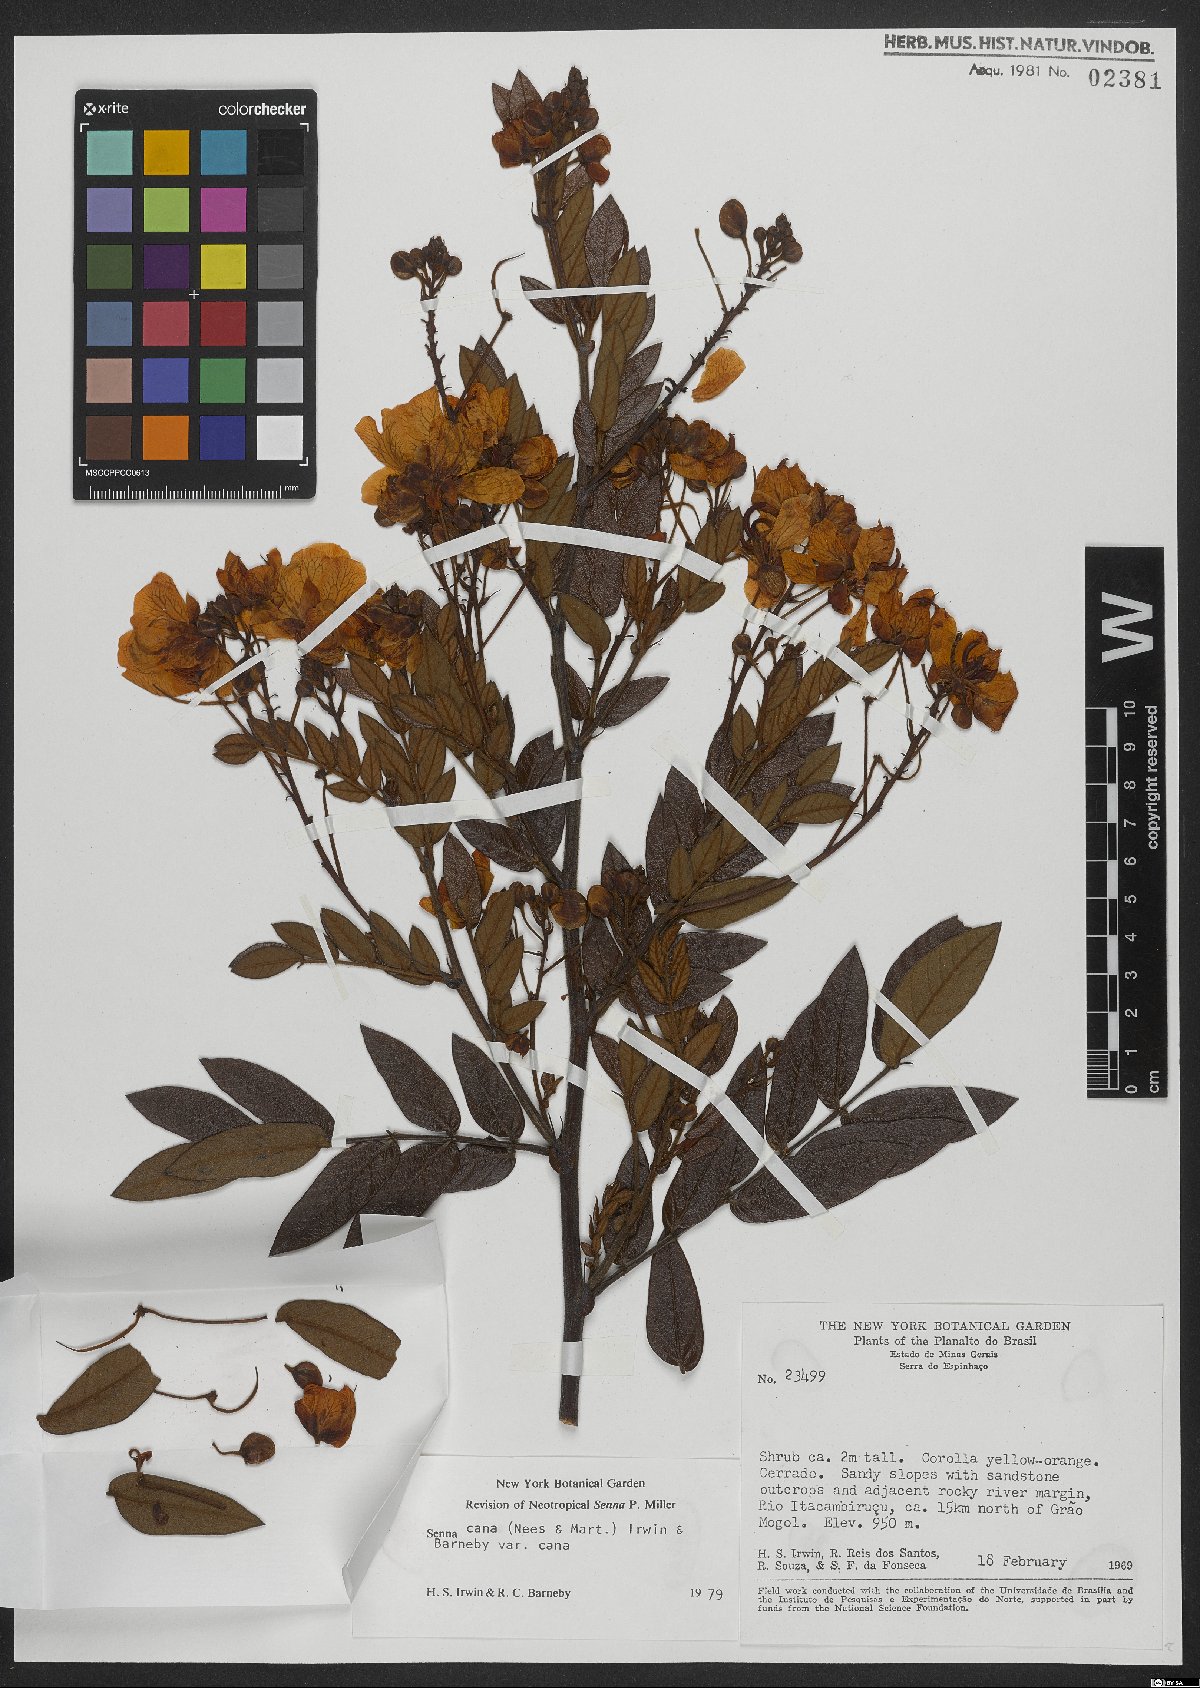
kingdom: Plantae
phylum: Tracheophyta
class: Magnoliopsida
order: Fabales
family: Fabaceae
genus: Senna
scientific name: Senna cana
